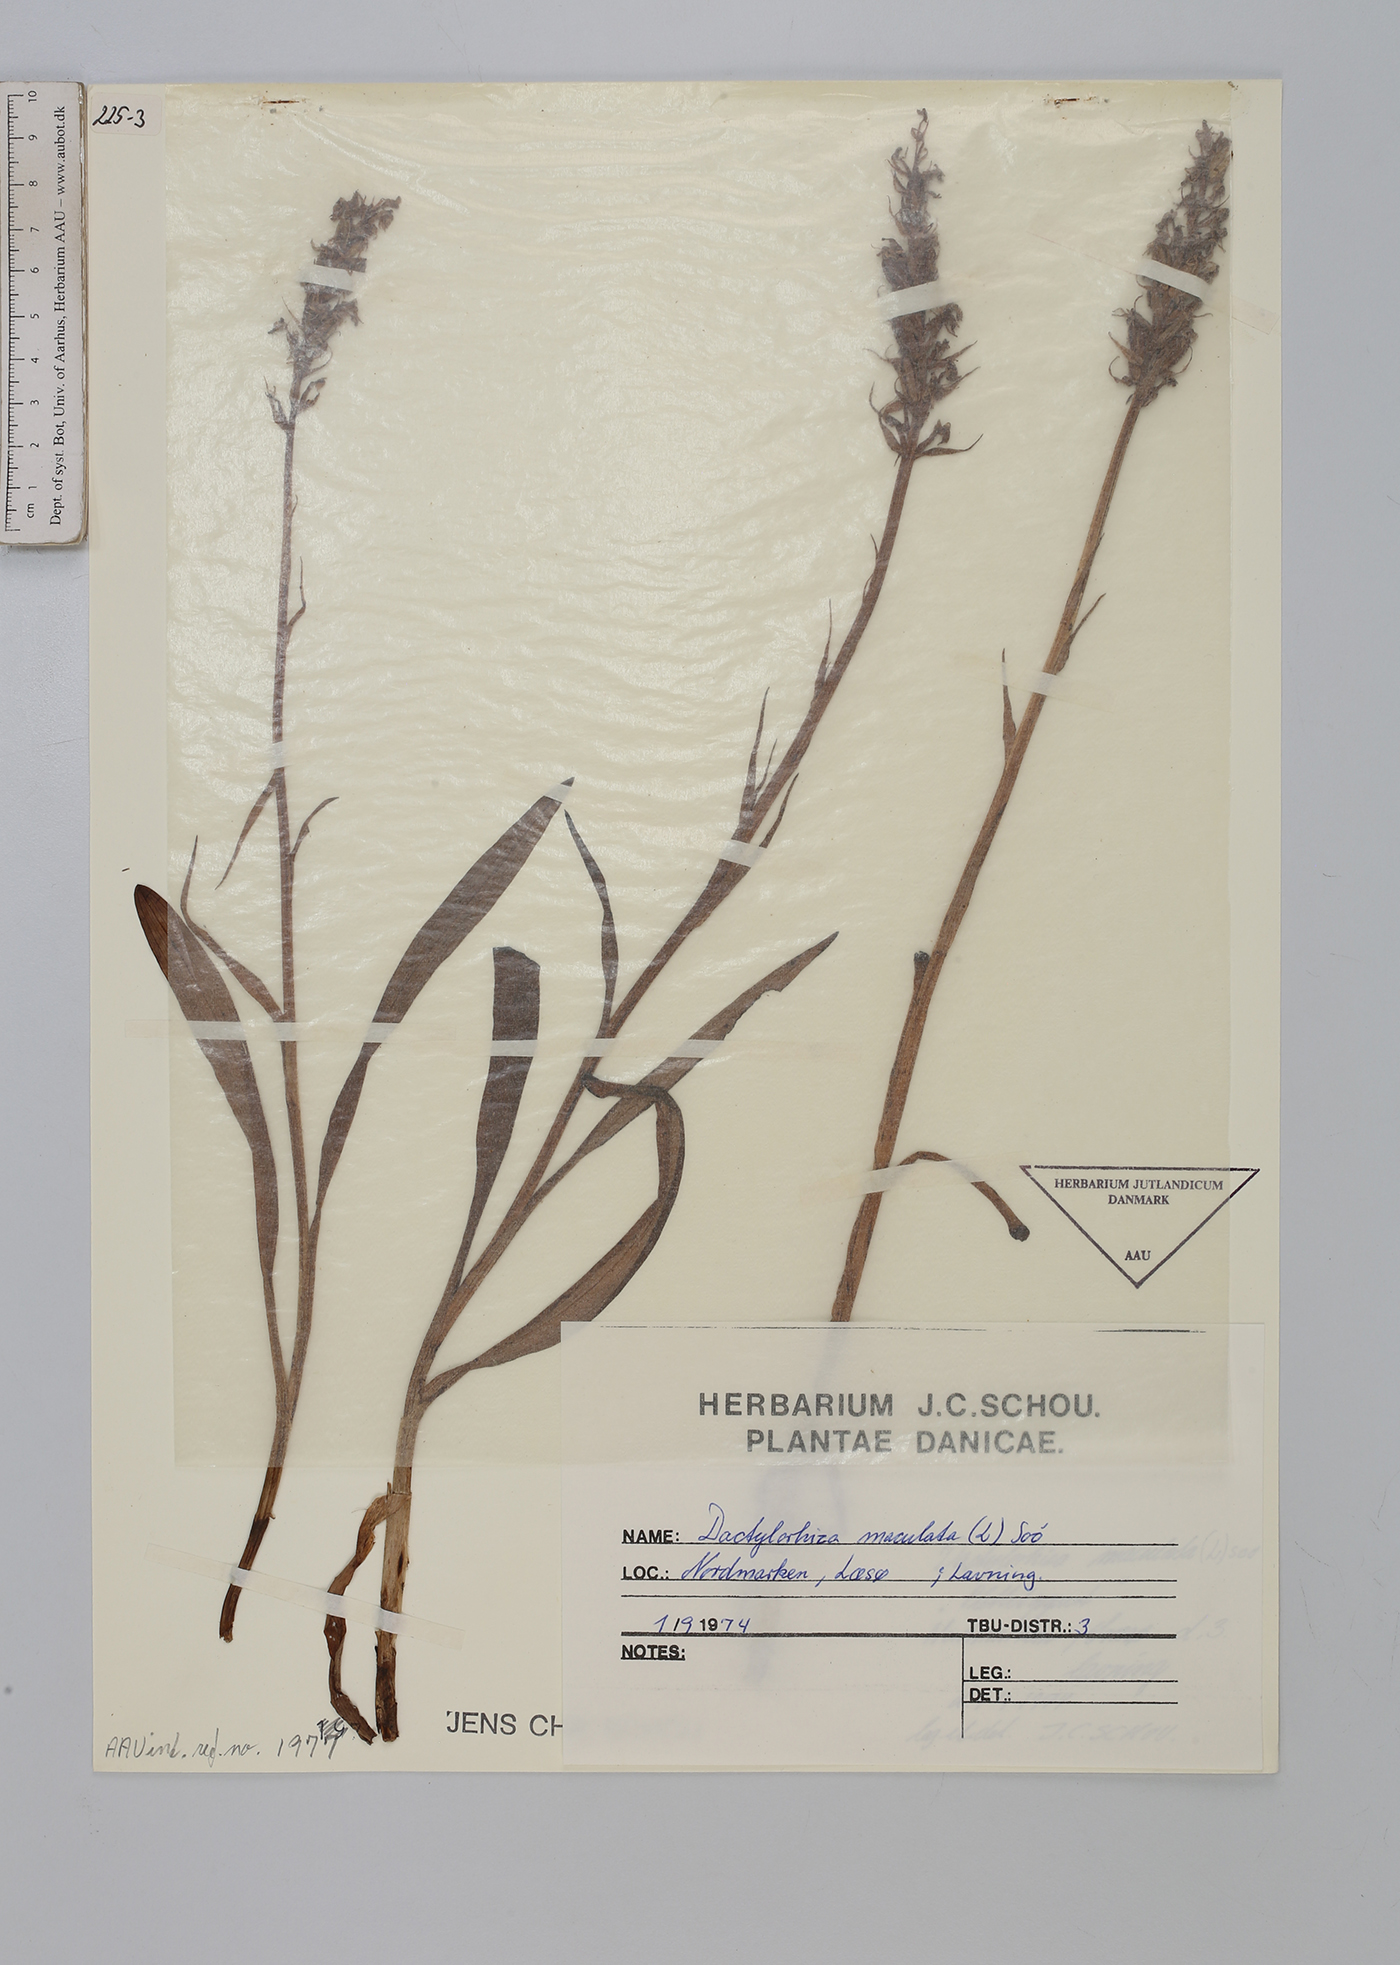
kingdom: Plantae
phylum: Tracheophyta
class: Liliopsida
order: Asparagales
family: Orchidaceae
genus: Dactylorhiza
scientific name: Dactylorhiza maculata
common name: Heath spotted-orchid
